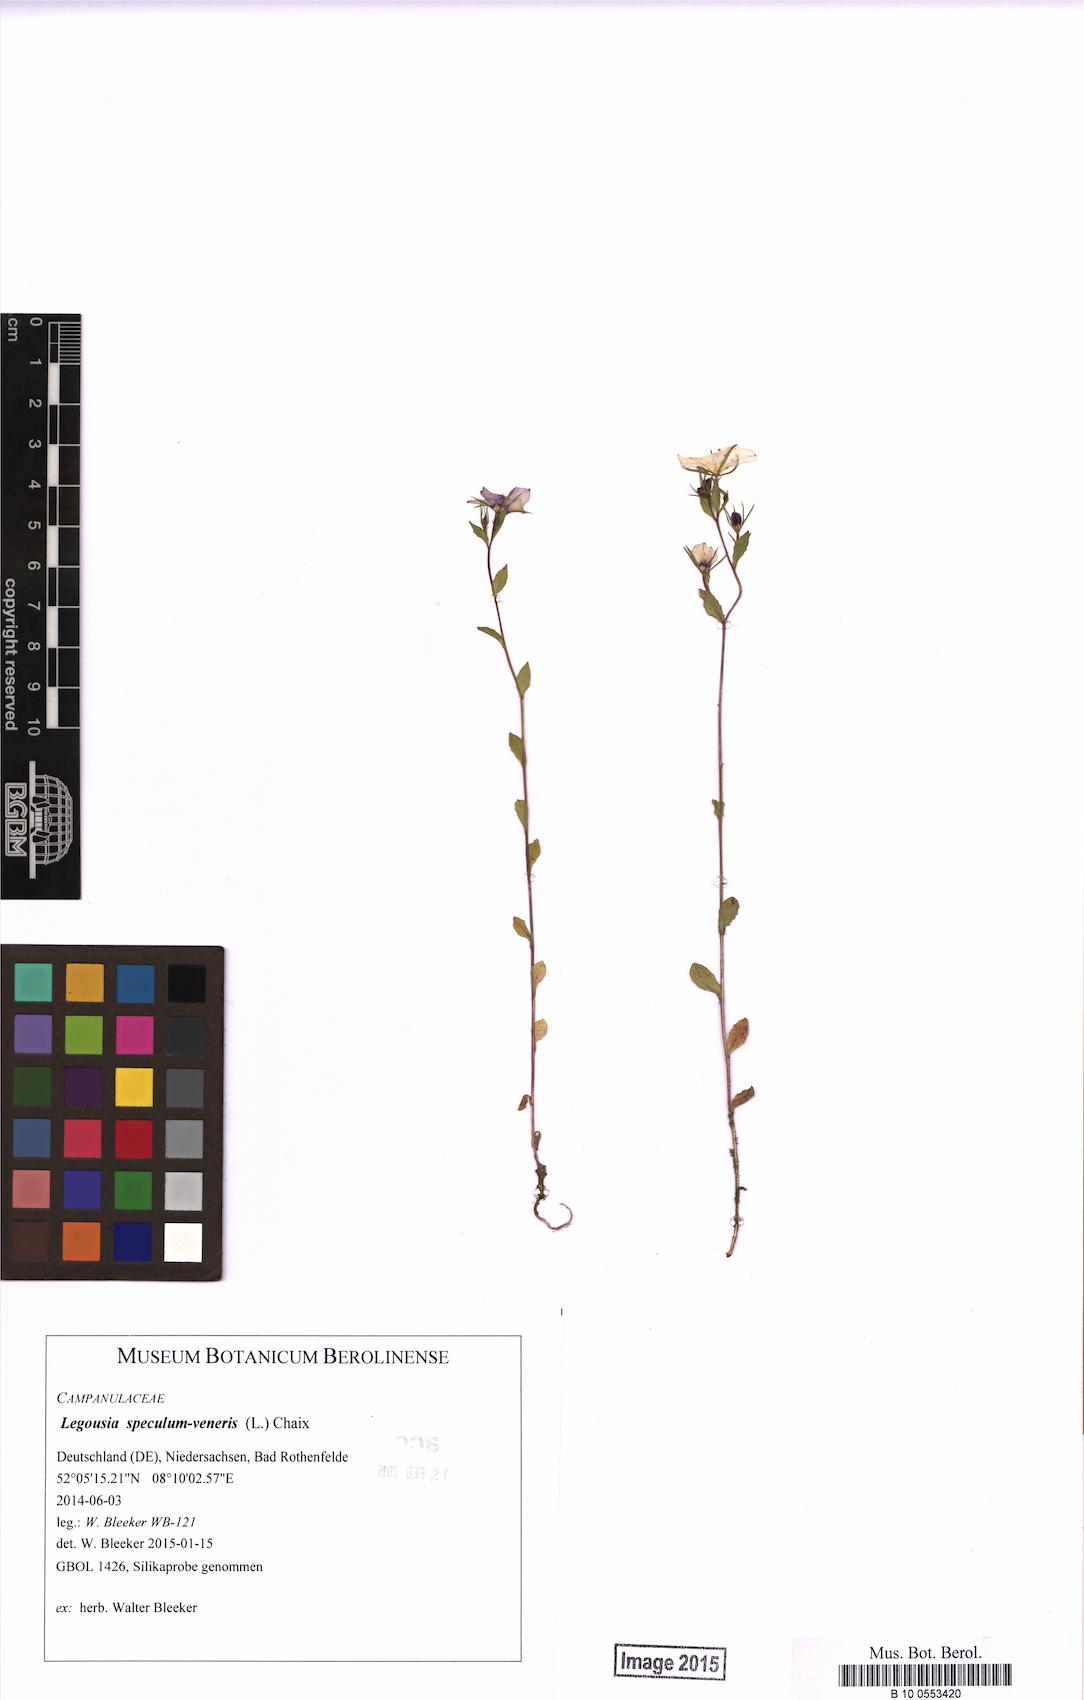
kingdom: Plantae
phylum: Tracheophyta
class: Magnoliopsida
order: Asterales
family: Campanulaceae
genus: Legousia
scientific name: Legousia speculum-veneris
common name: Large venus's-looking-glass
